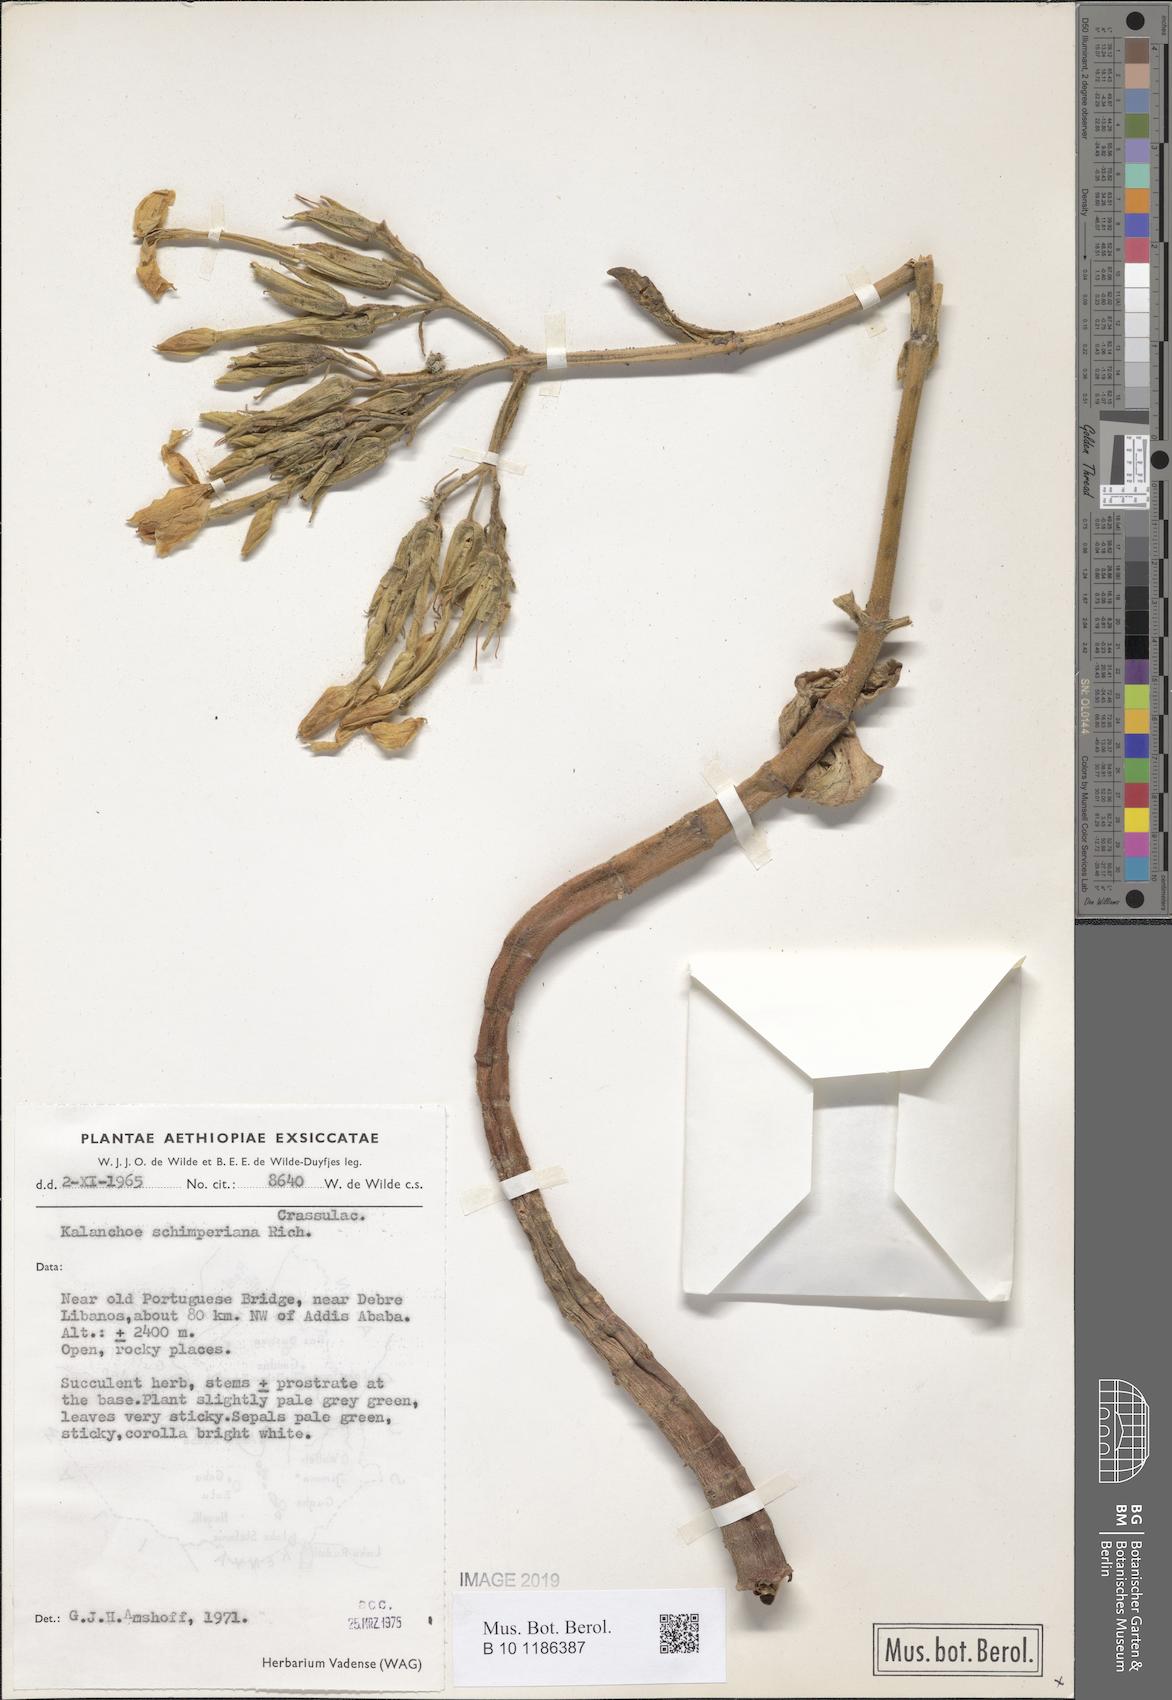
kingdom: Plantae
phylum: Tracheophyta
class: Magnoliopsida
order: Saxifragales
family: Crassulaceae
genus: Kalanchoe
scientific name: Kalanchoe schimperiana
